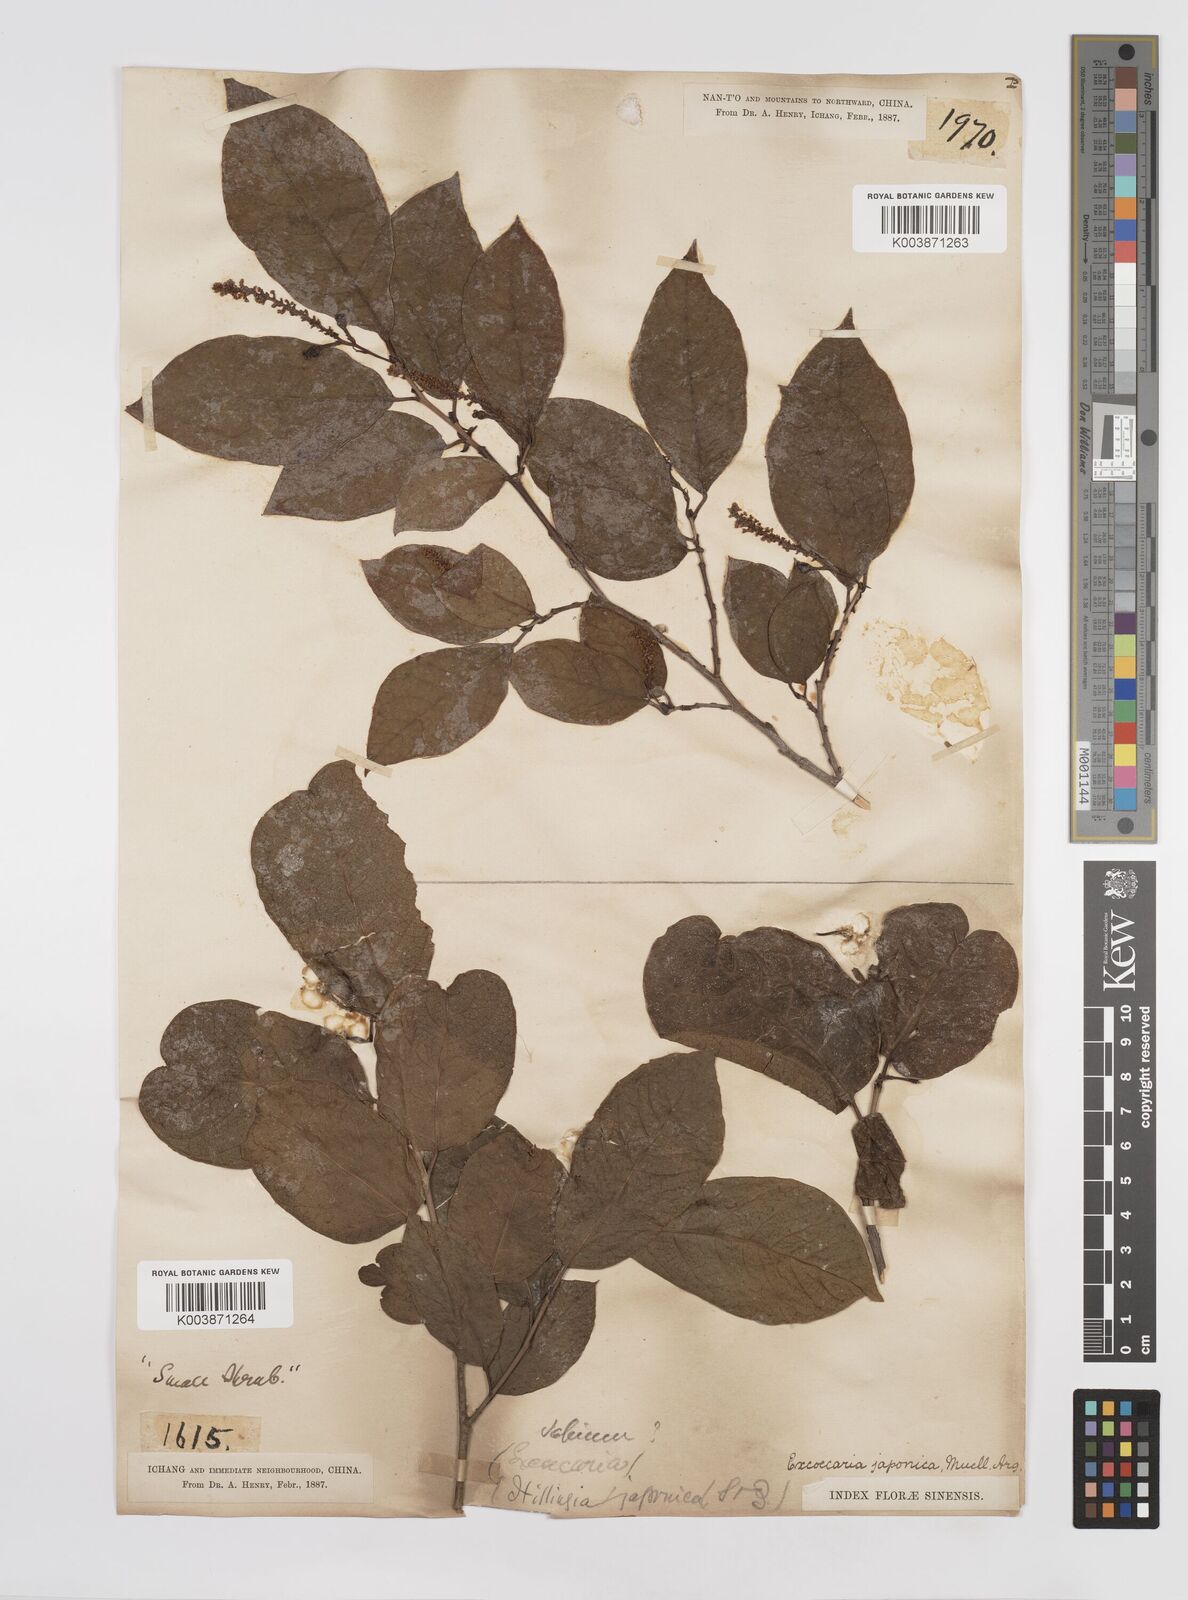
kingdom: Plantae
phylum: Tracheophyta
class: Magnoliopsida
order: Malpighiales
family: Euphorbiaceae
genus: Neoshirakia
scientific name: Neoshirakia japonica
